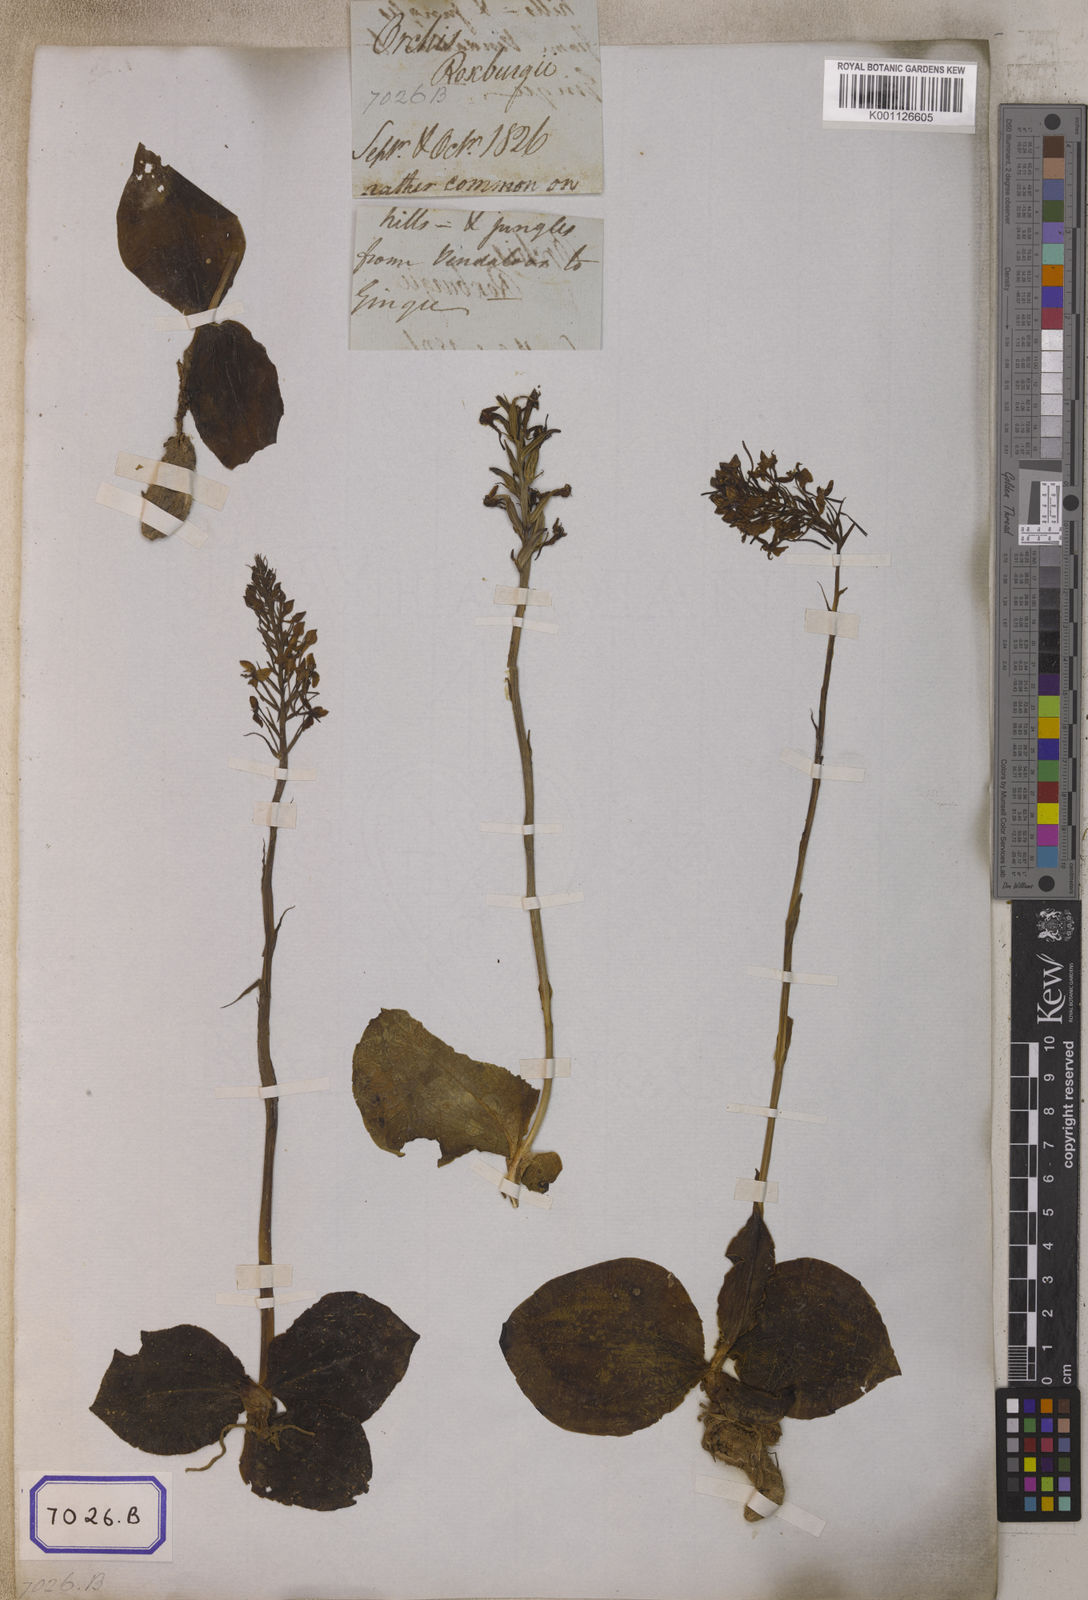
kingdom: Plantae
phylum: Tracheophyta
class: Liliopsida
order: Asparagales
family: Orchidaceae
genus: Habenaria
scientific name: Habenaria roxburghii
